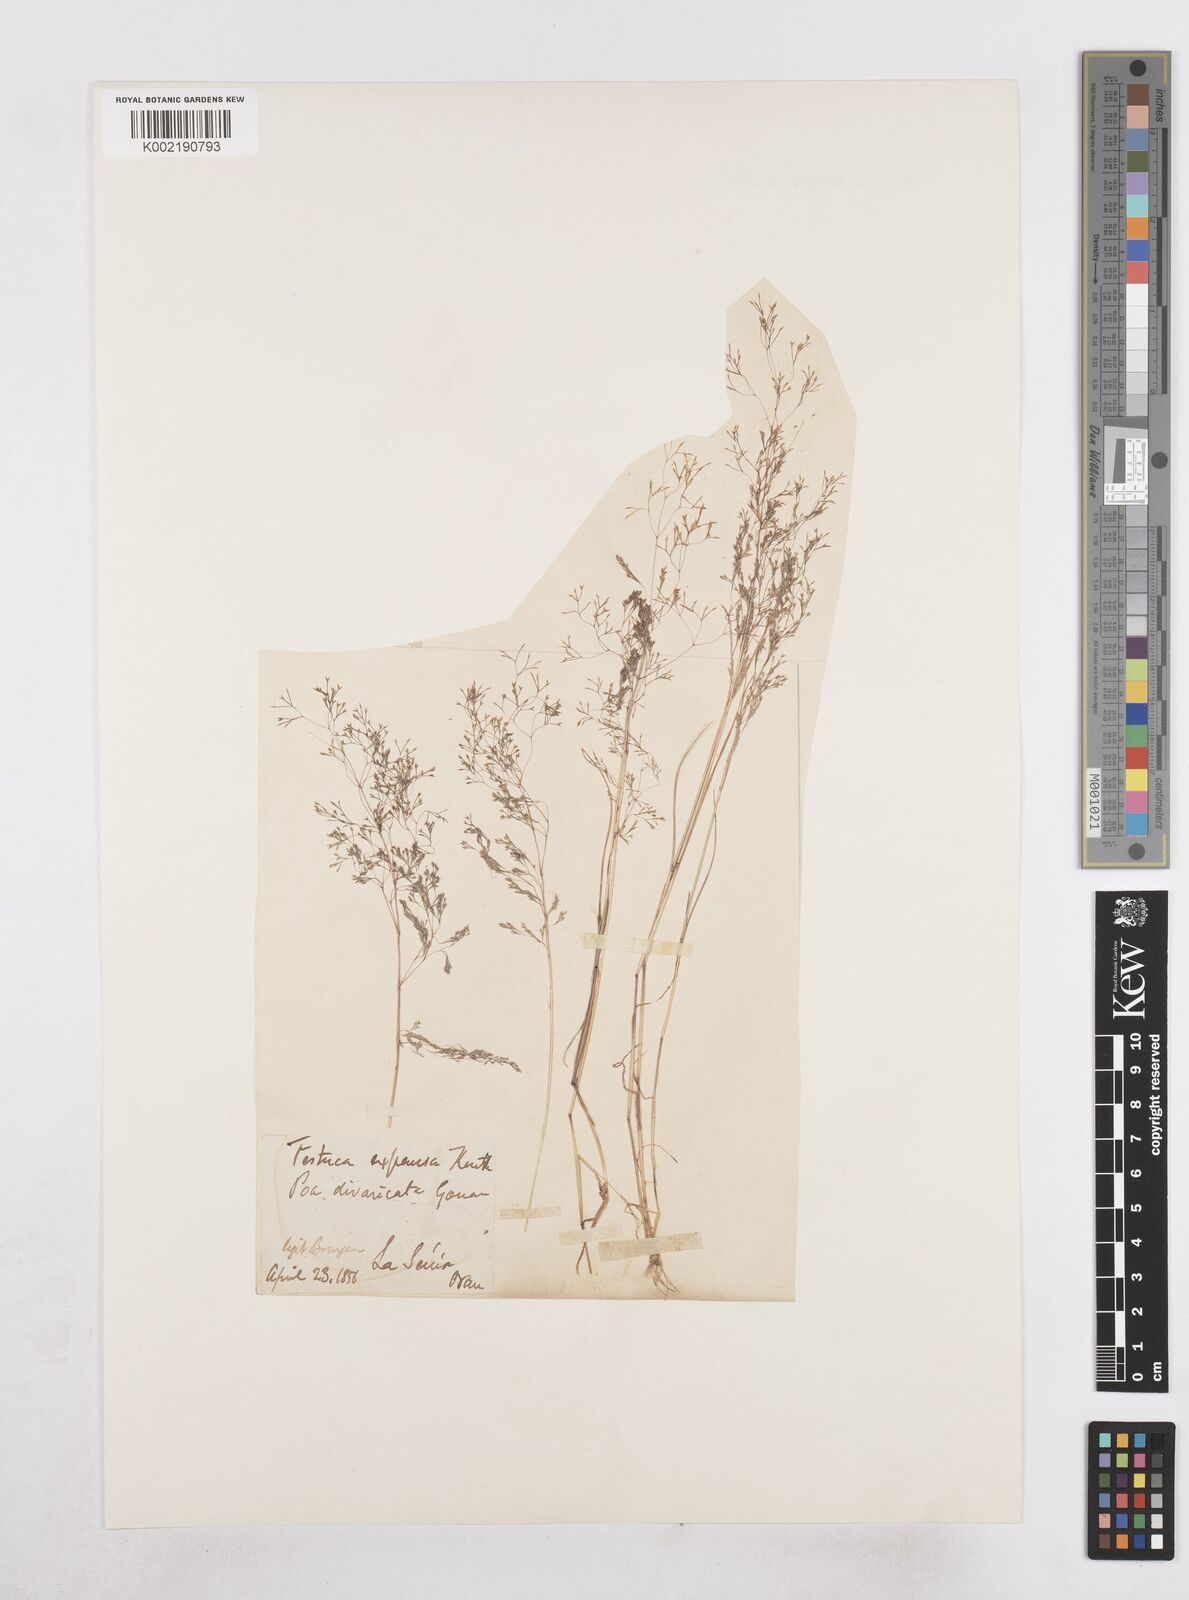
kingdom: Plantae
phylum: Tracheophyta
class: Liliopsida
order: Poales
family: Poaceae
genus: Sphenopus
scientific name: Sphenopus divaricatus
